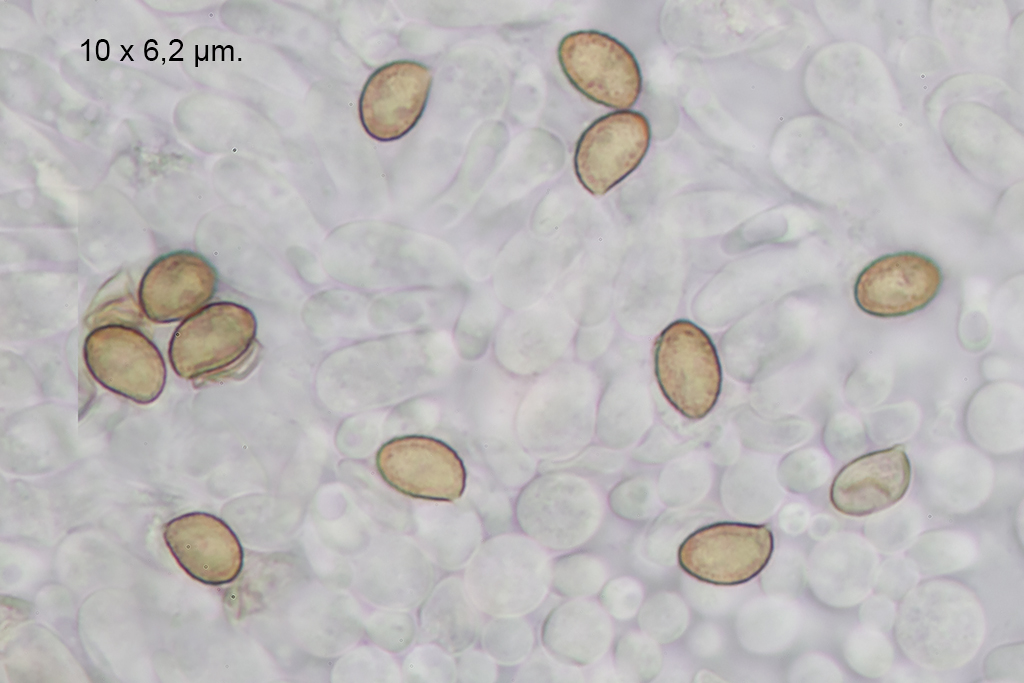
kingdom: Fungi
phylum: Basidiomycota
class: Agaricomycetes
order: Agaricales
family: Cortinariaceae
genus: Cortinarius
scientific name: Cortinarius turgidus
